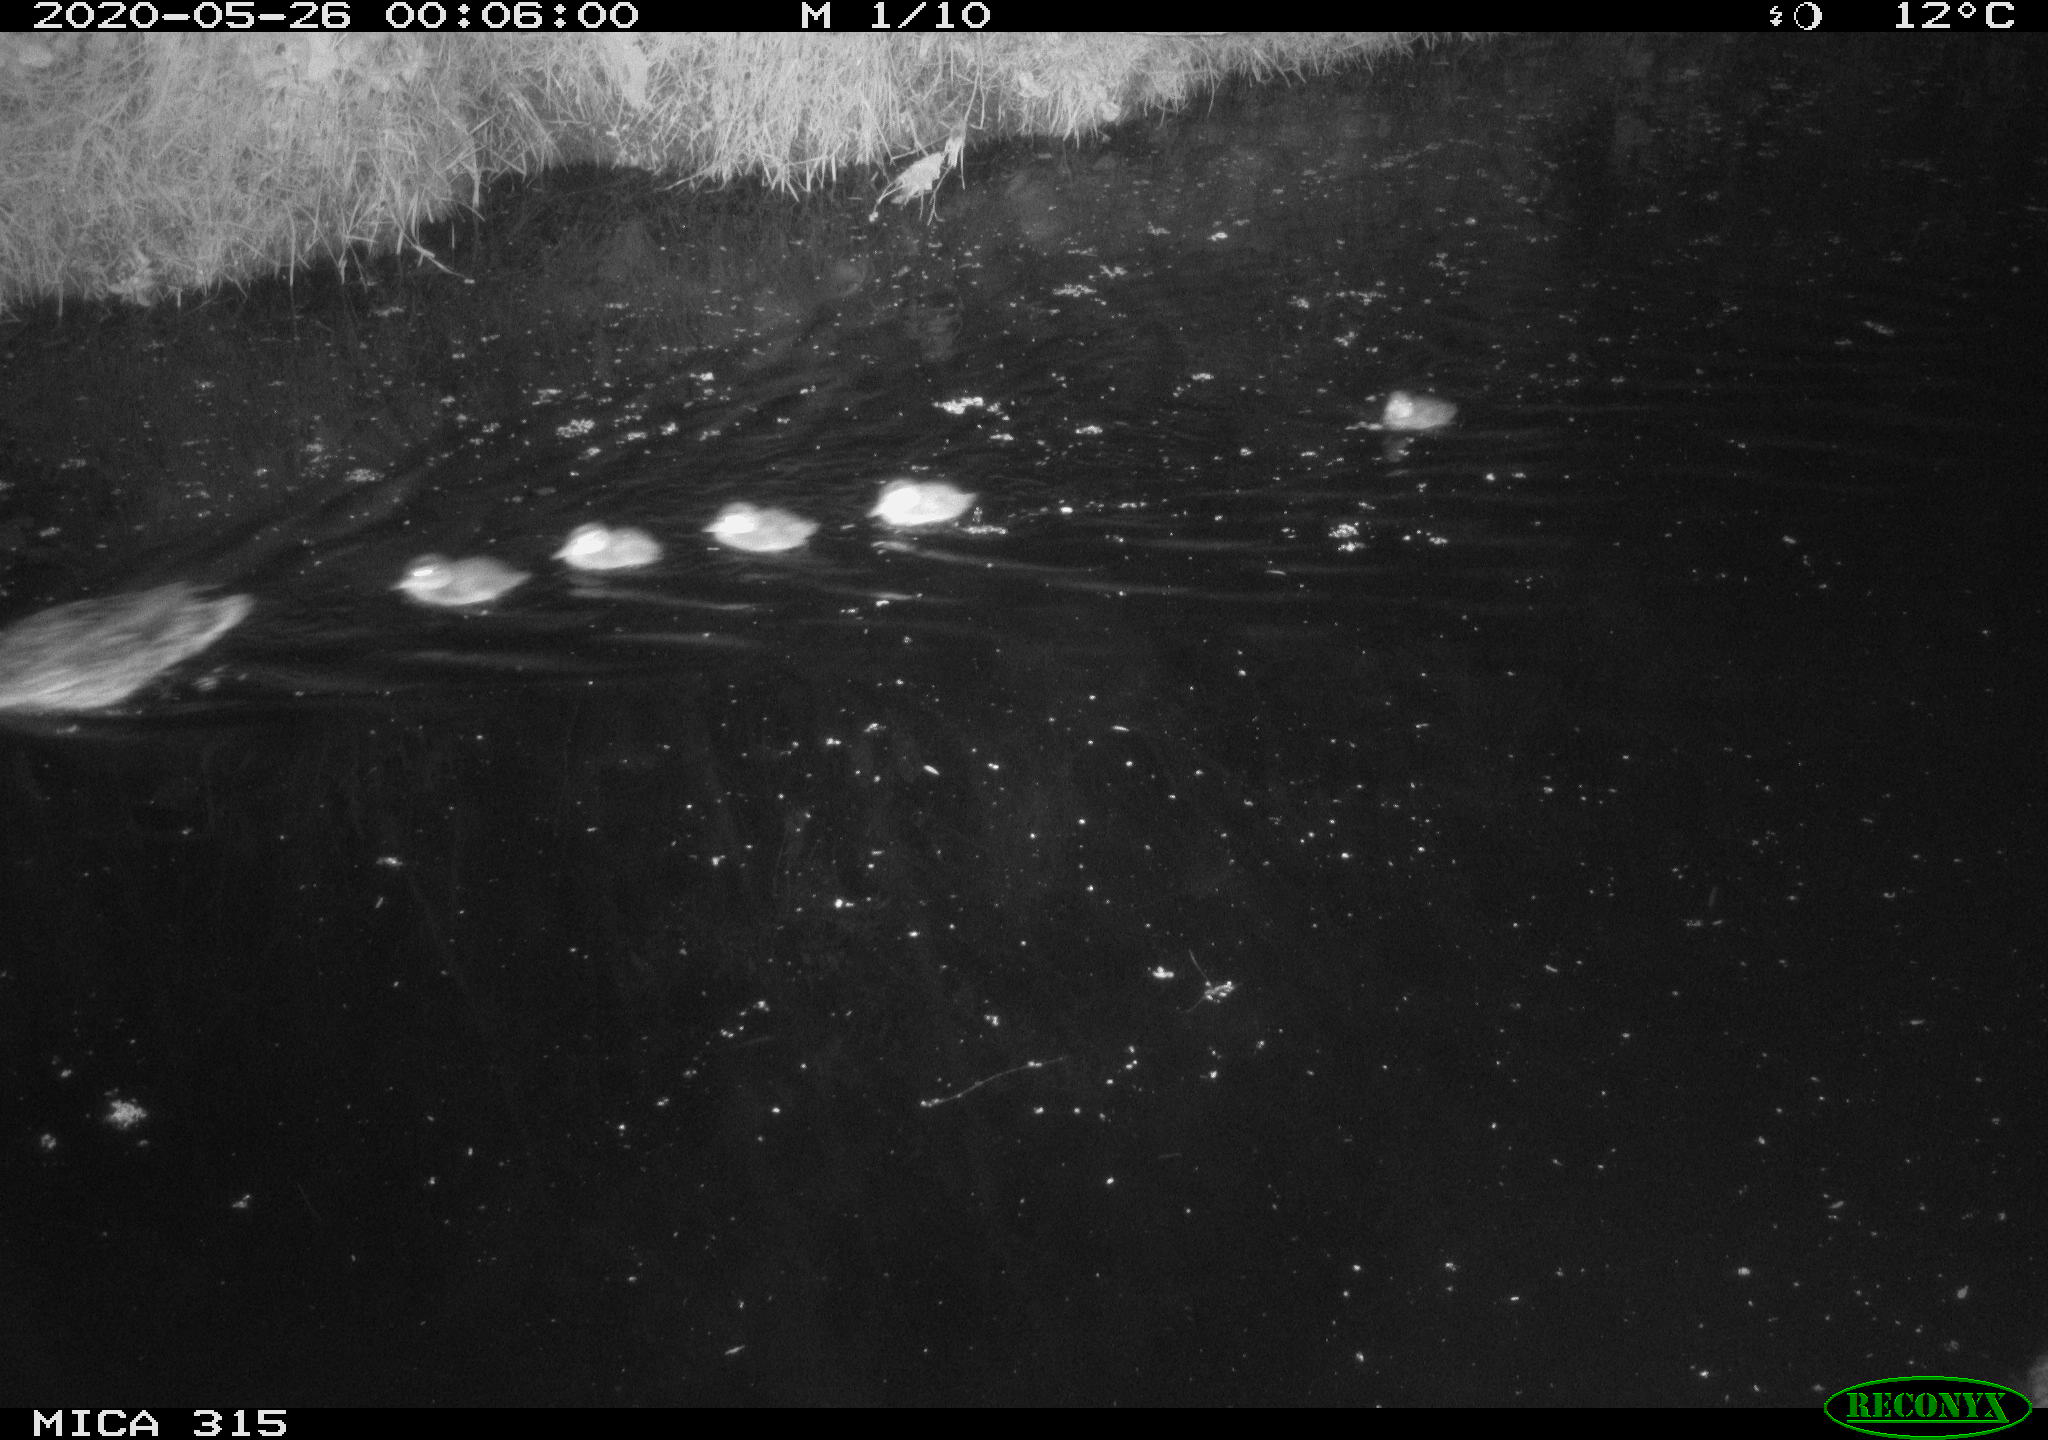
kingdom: Animalia
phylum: Chordata
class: Aves
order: Anseriformes
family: Anatidae
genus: Anas
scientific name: Anas platyrhynchos
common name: Mallard
